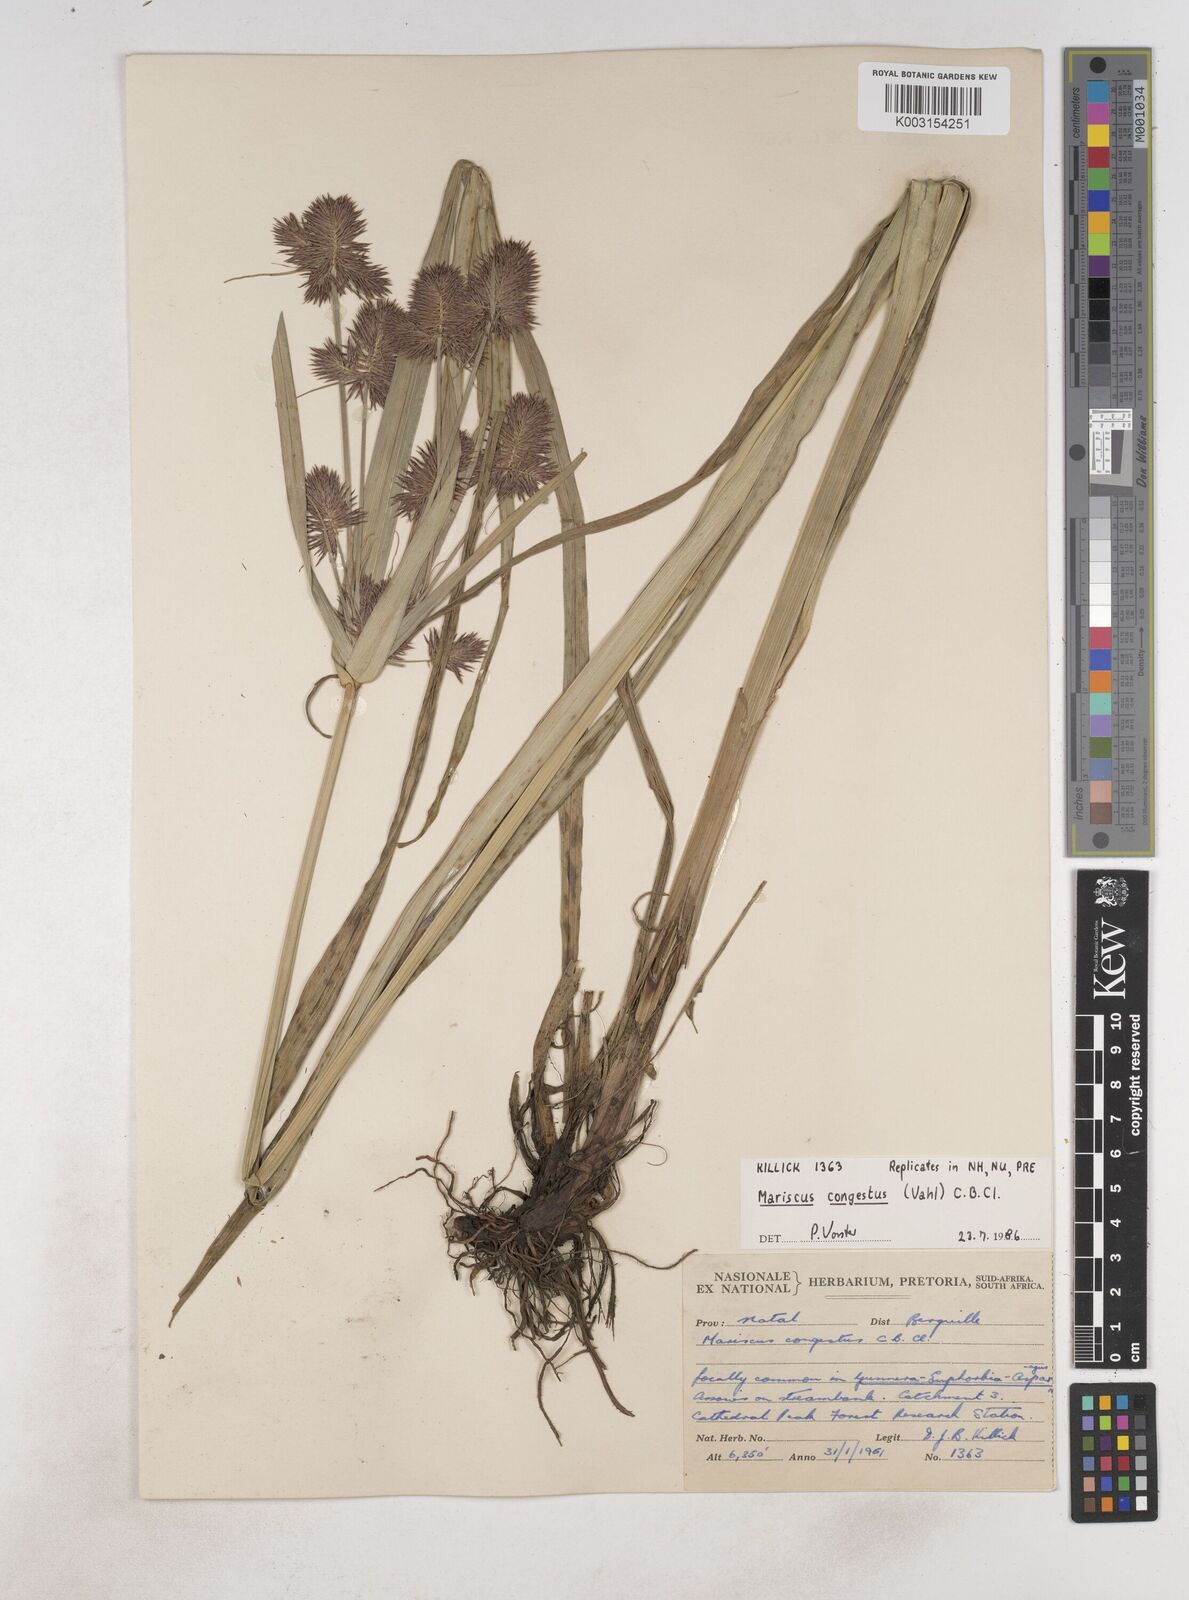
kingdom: Plantae
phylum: Tracheophyta
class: Liliopsida
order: Poales
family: Cyperaceae
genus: Cyperus
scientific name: Cyperus congestus
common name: Dense flat sedge
